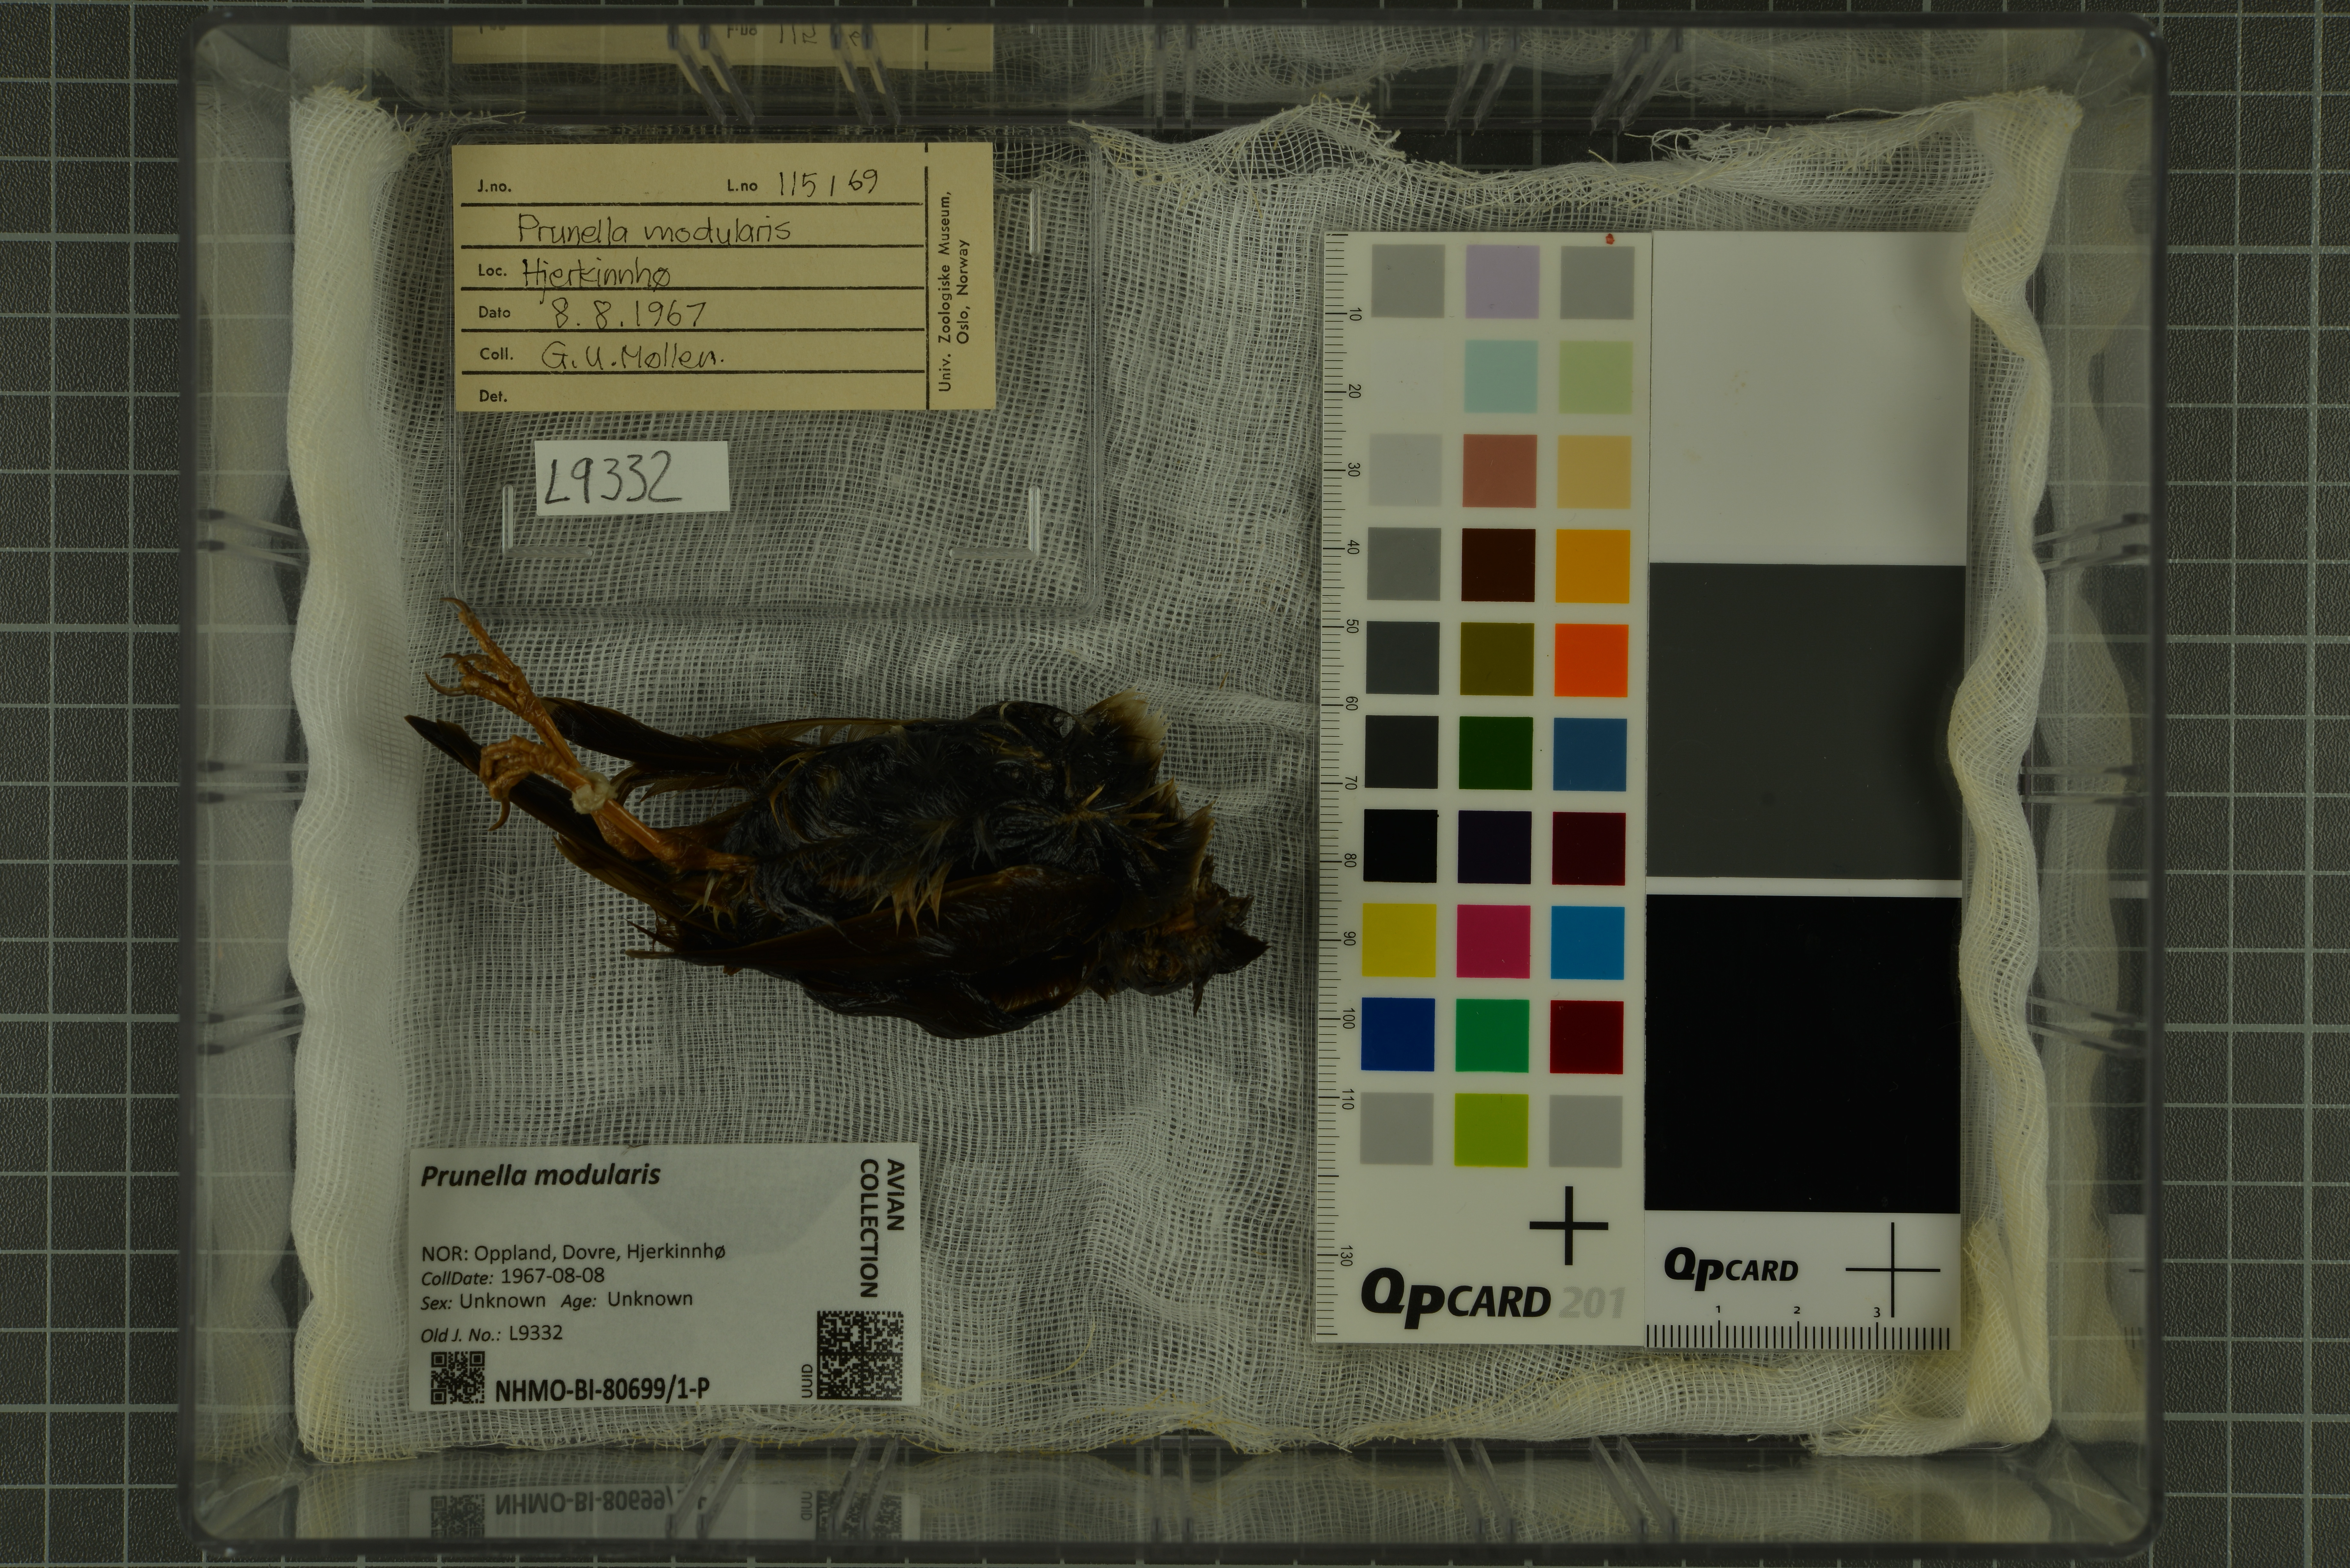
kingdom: Animalia
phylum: Chordata
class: Aves
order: Passeriformes
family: Prunellidae
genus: Prunella
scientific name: Prunella modularis
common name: Dunnock
